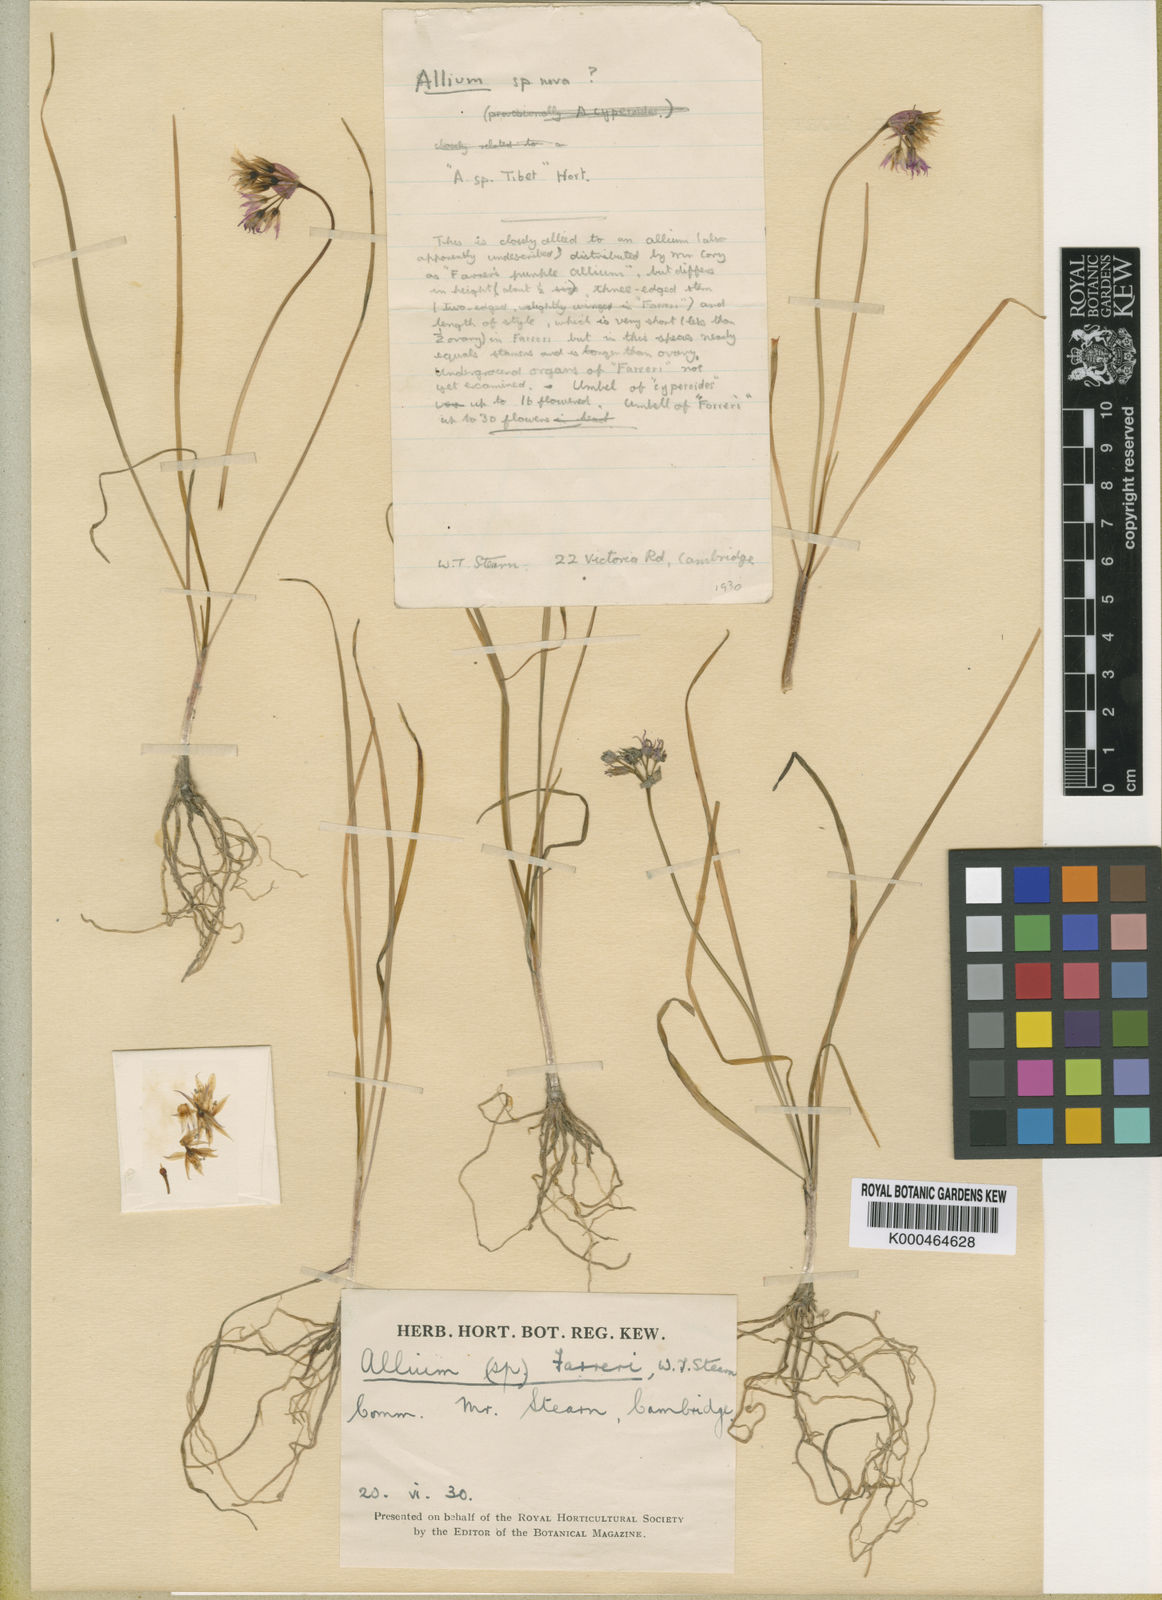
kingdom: Plantae
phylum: Tracheophyta
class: Liliopsida
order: Asparagales
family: Amaryllidaceae
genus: Allium
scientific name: Allium farreri
